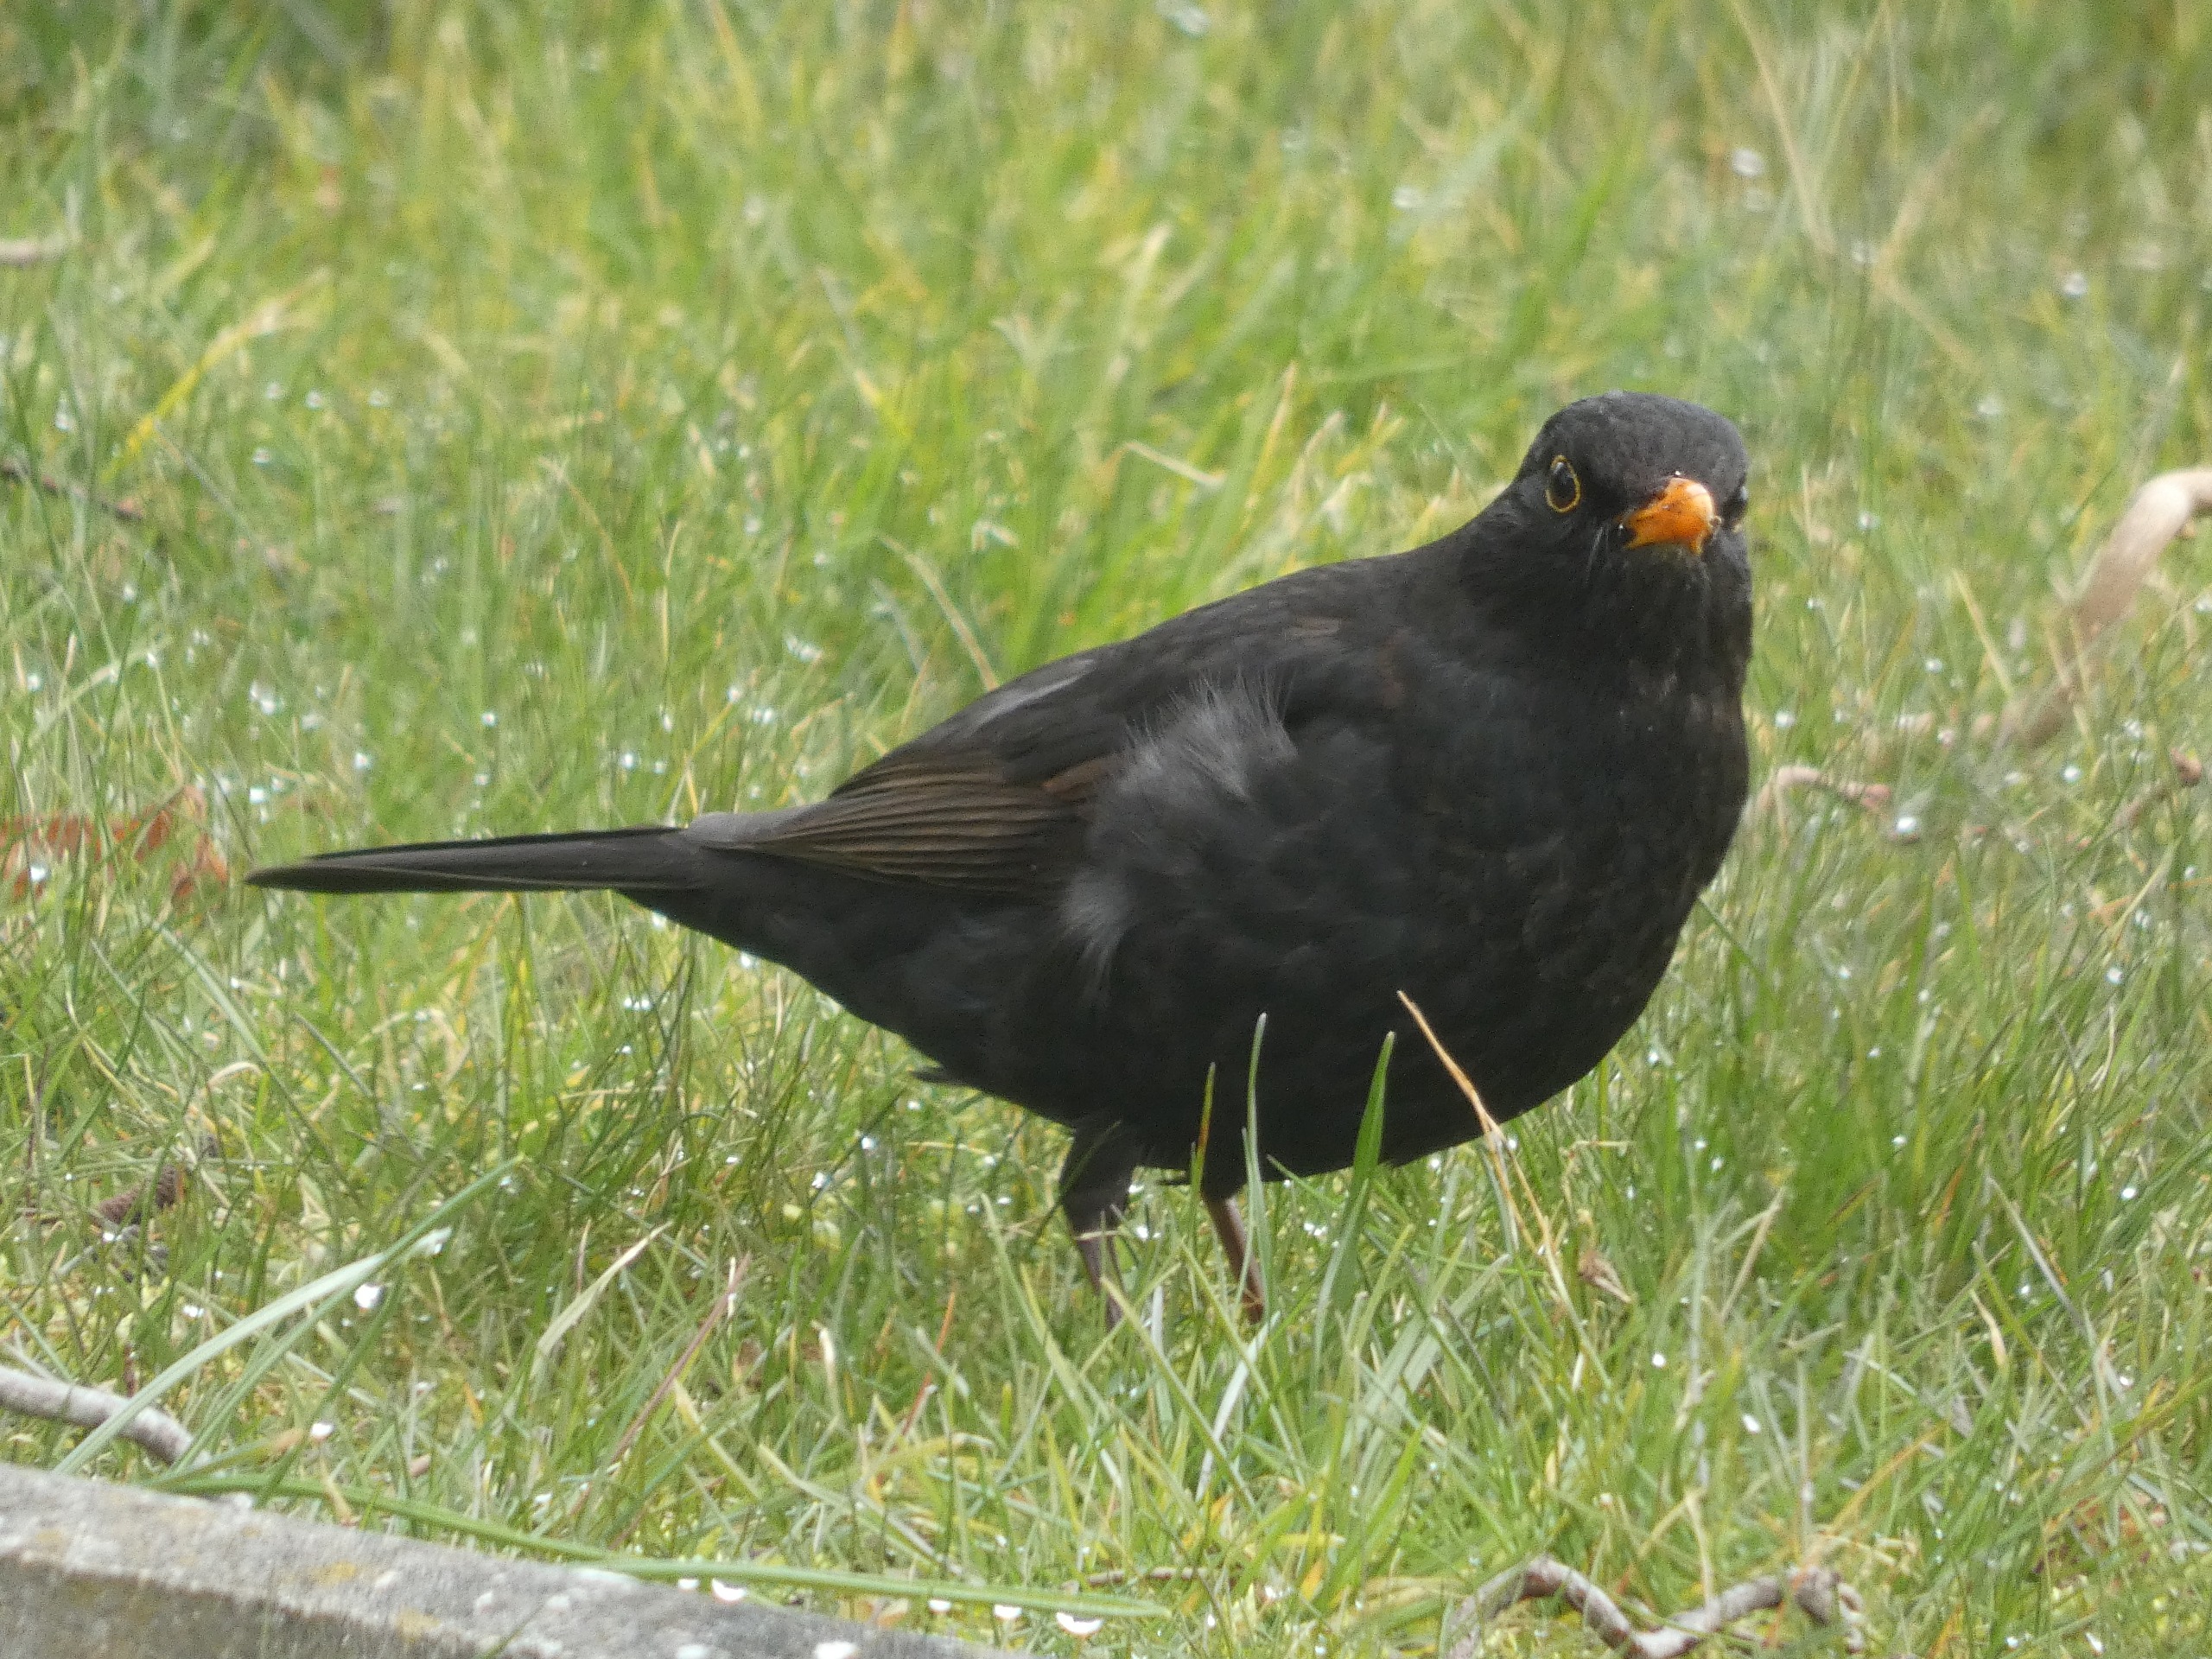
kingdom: Animalia
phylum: Chordata
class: Aves
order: Passeriformes
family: Turdidae
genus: Turdus
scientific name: Turdus merula
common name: Solsort
